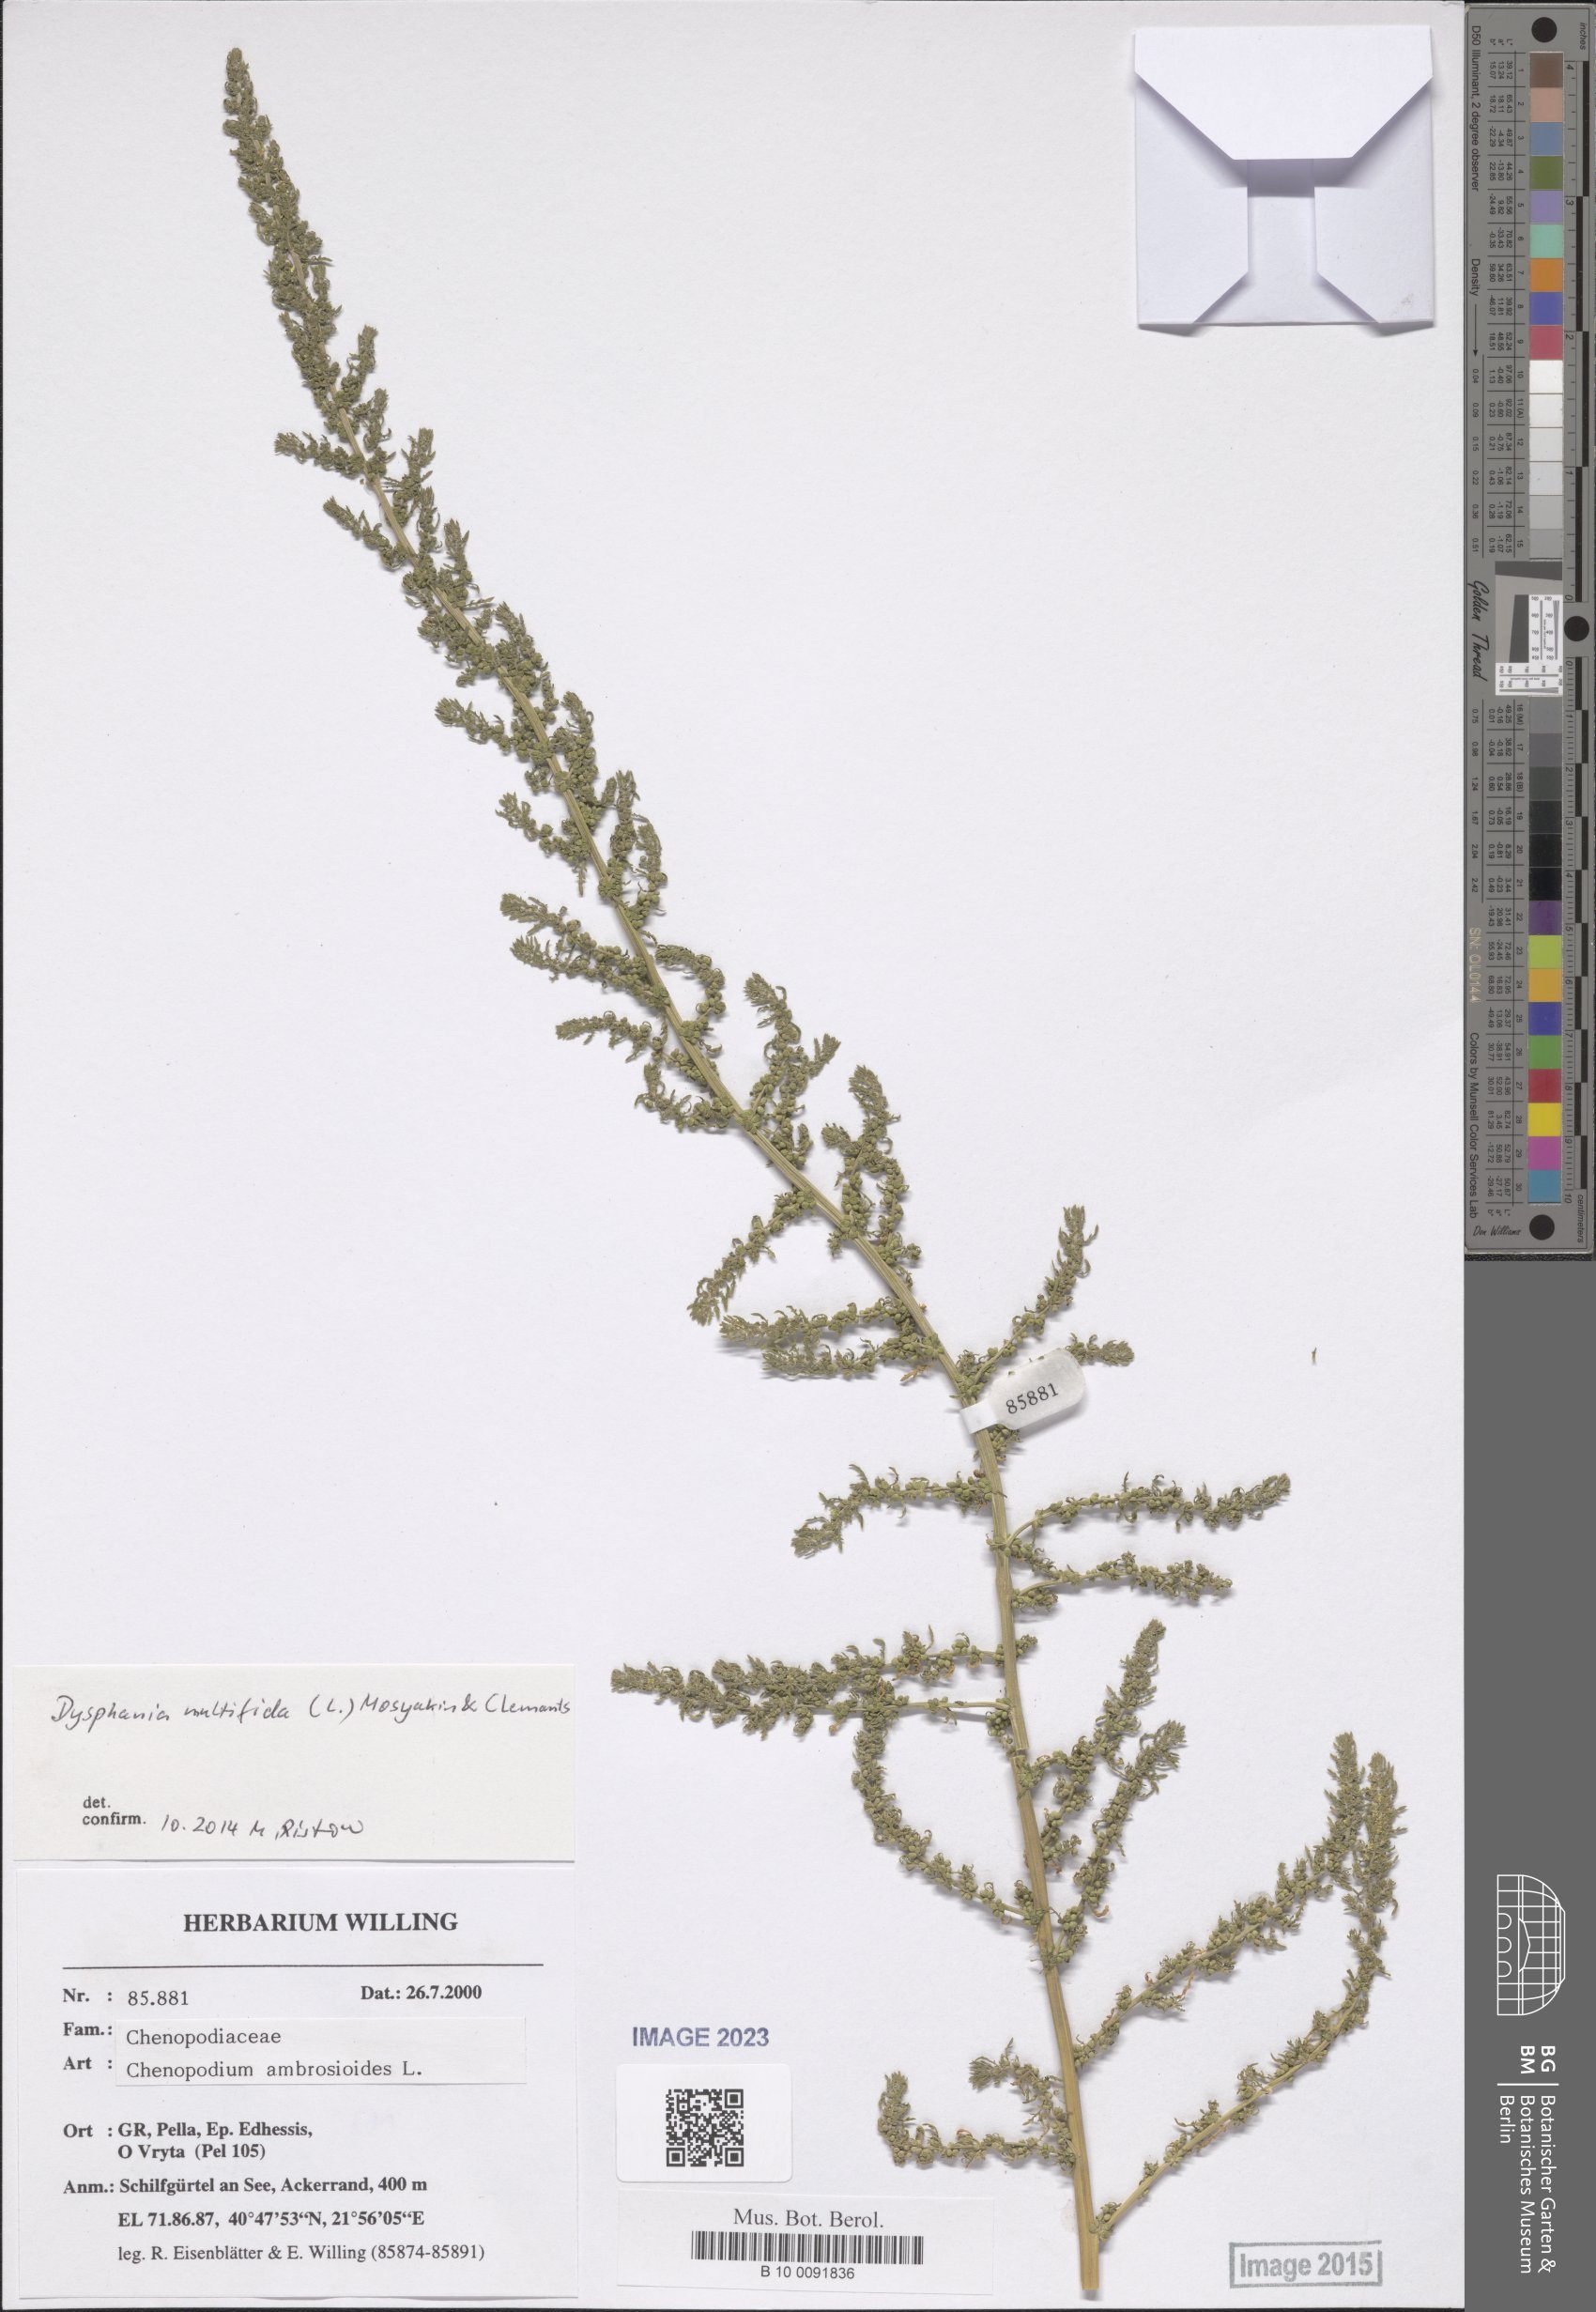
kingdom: Plantae
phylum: Tracheophyta
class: Magnoliopsida
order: Caryophyllales
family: Amaranthaceae
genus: Dysphania
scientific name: Dysphania multifida
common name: Cutleaf goosefoot
